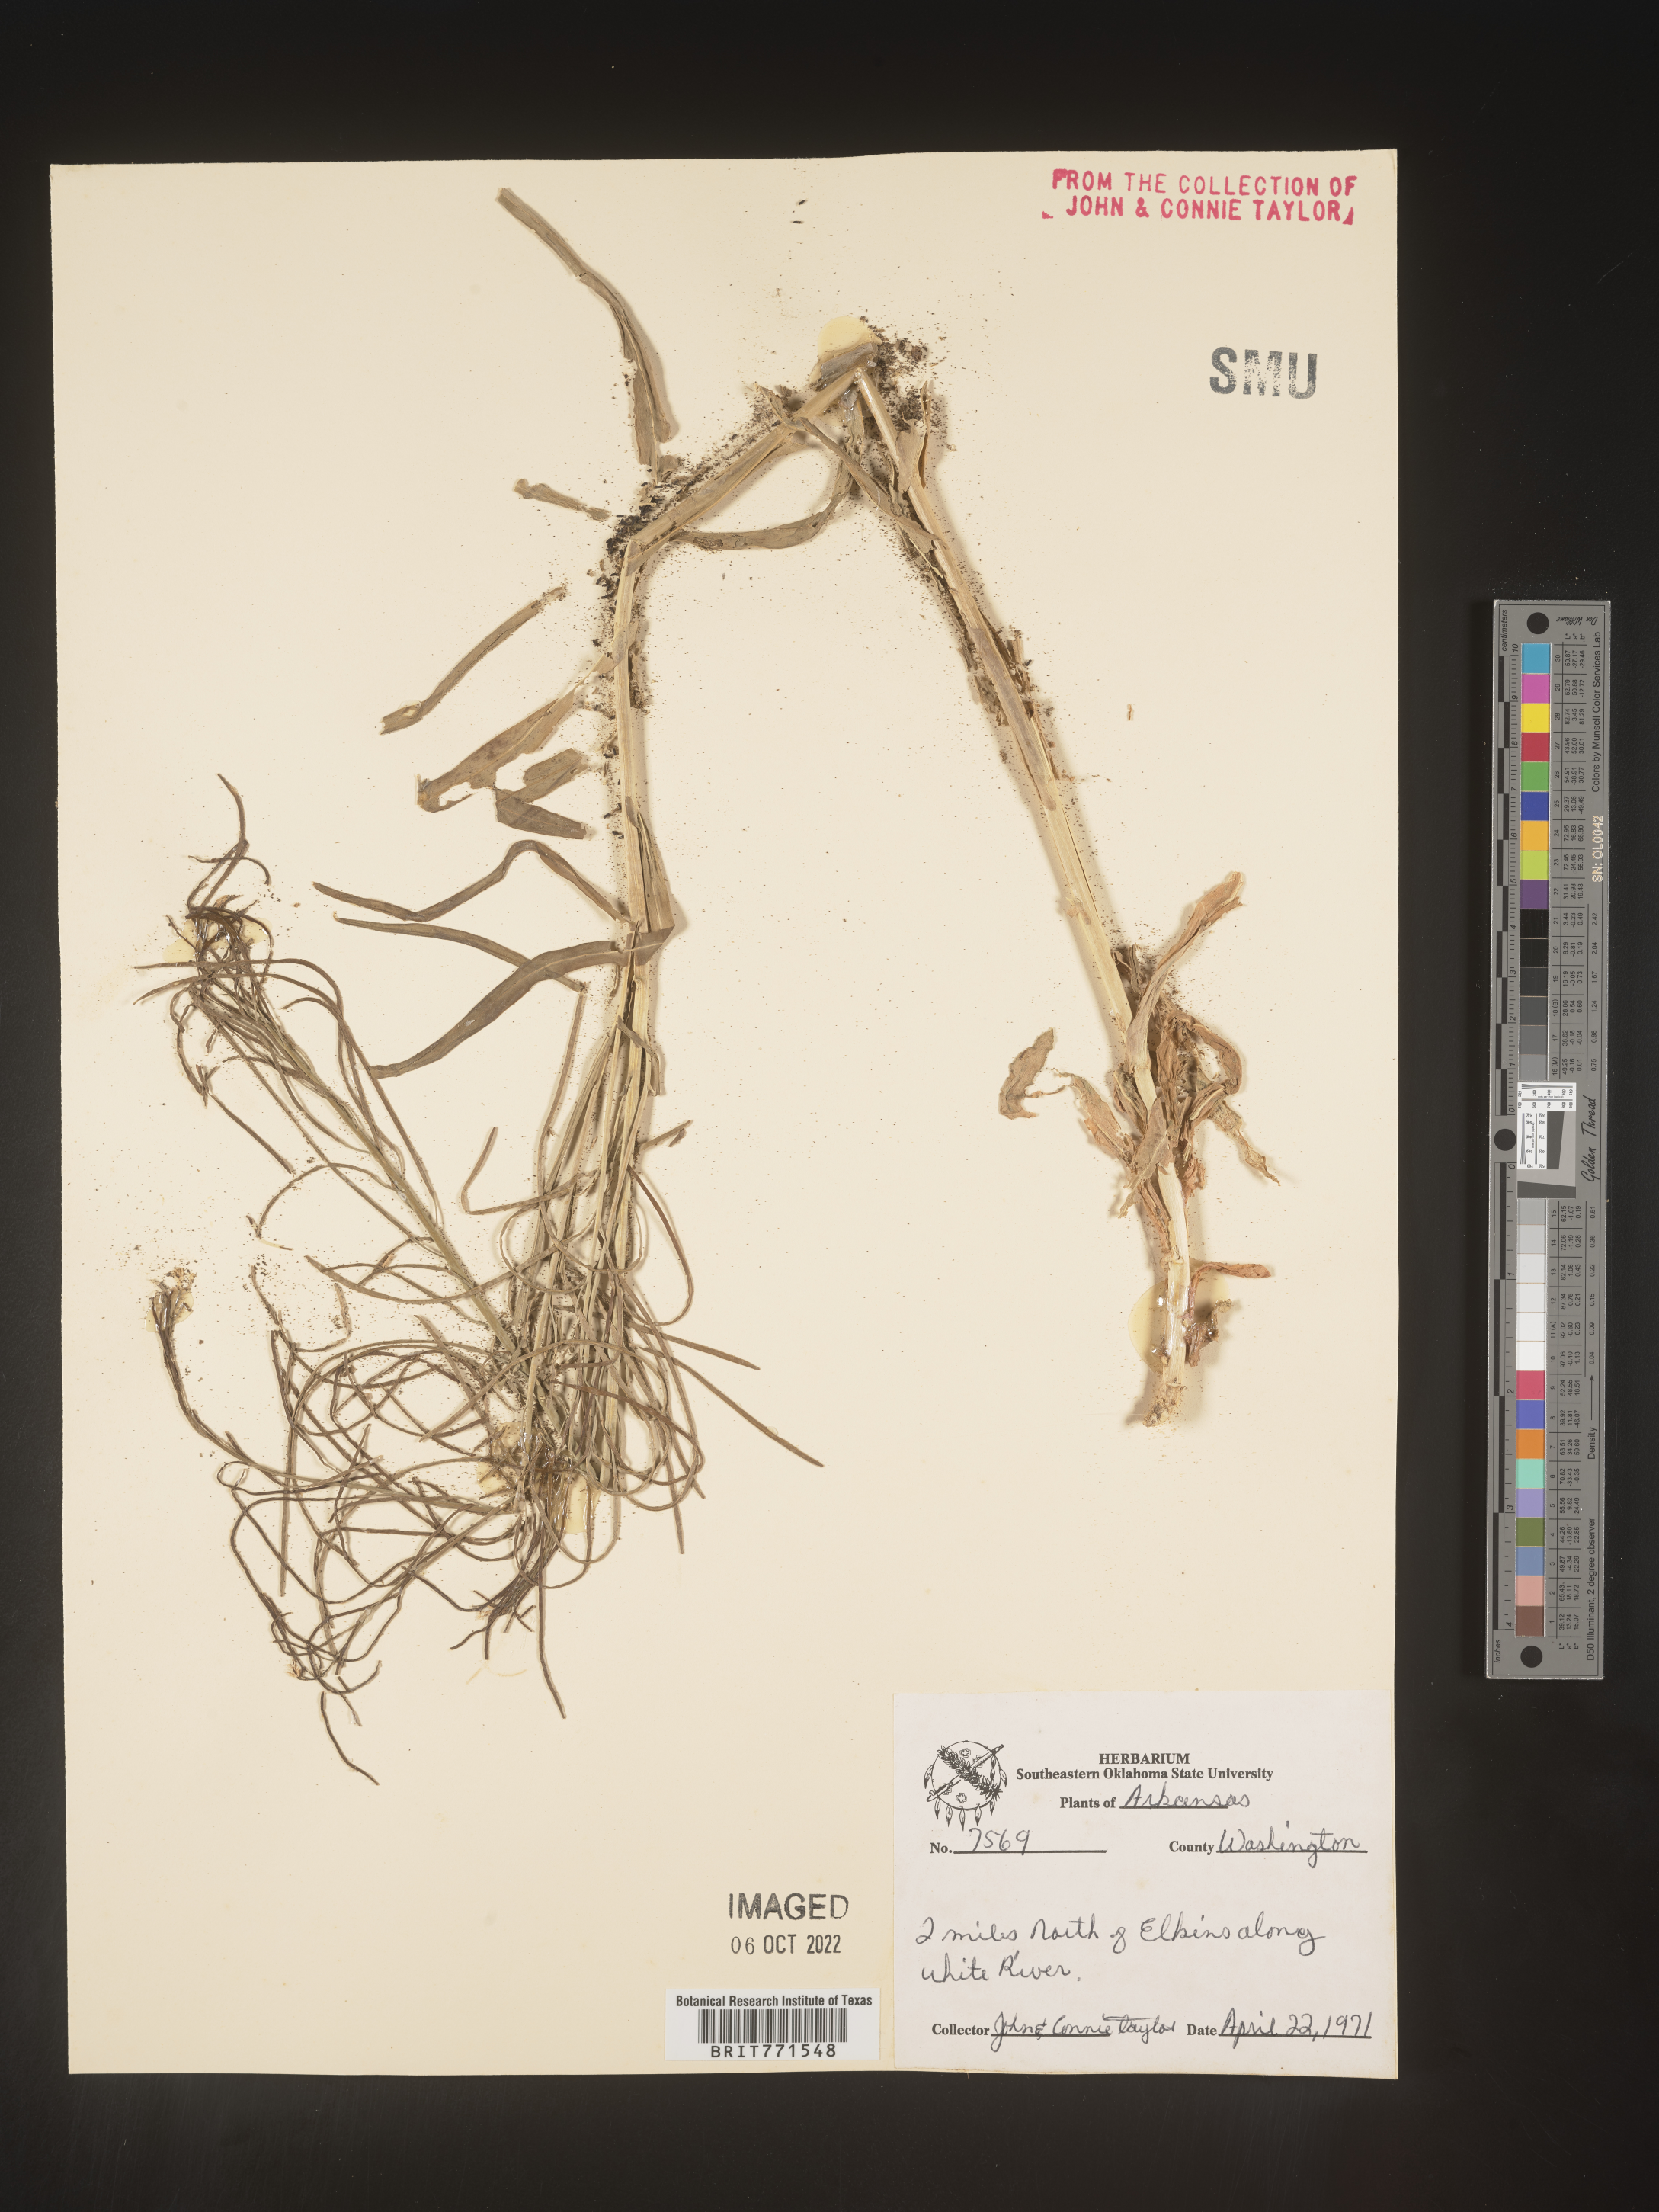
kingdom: Plantae
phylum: Tracheophyta
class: Magnoliopsida
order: Brassicales
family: Brassicaceae
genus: Arabis
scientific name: Arabis laevigata
